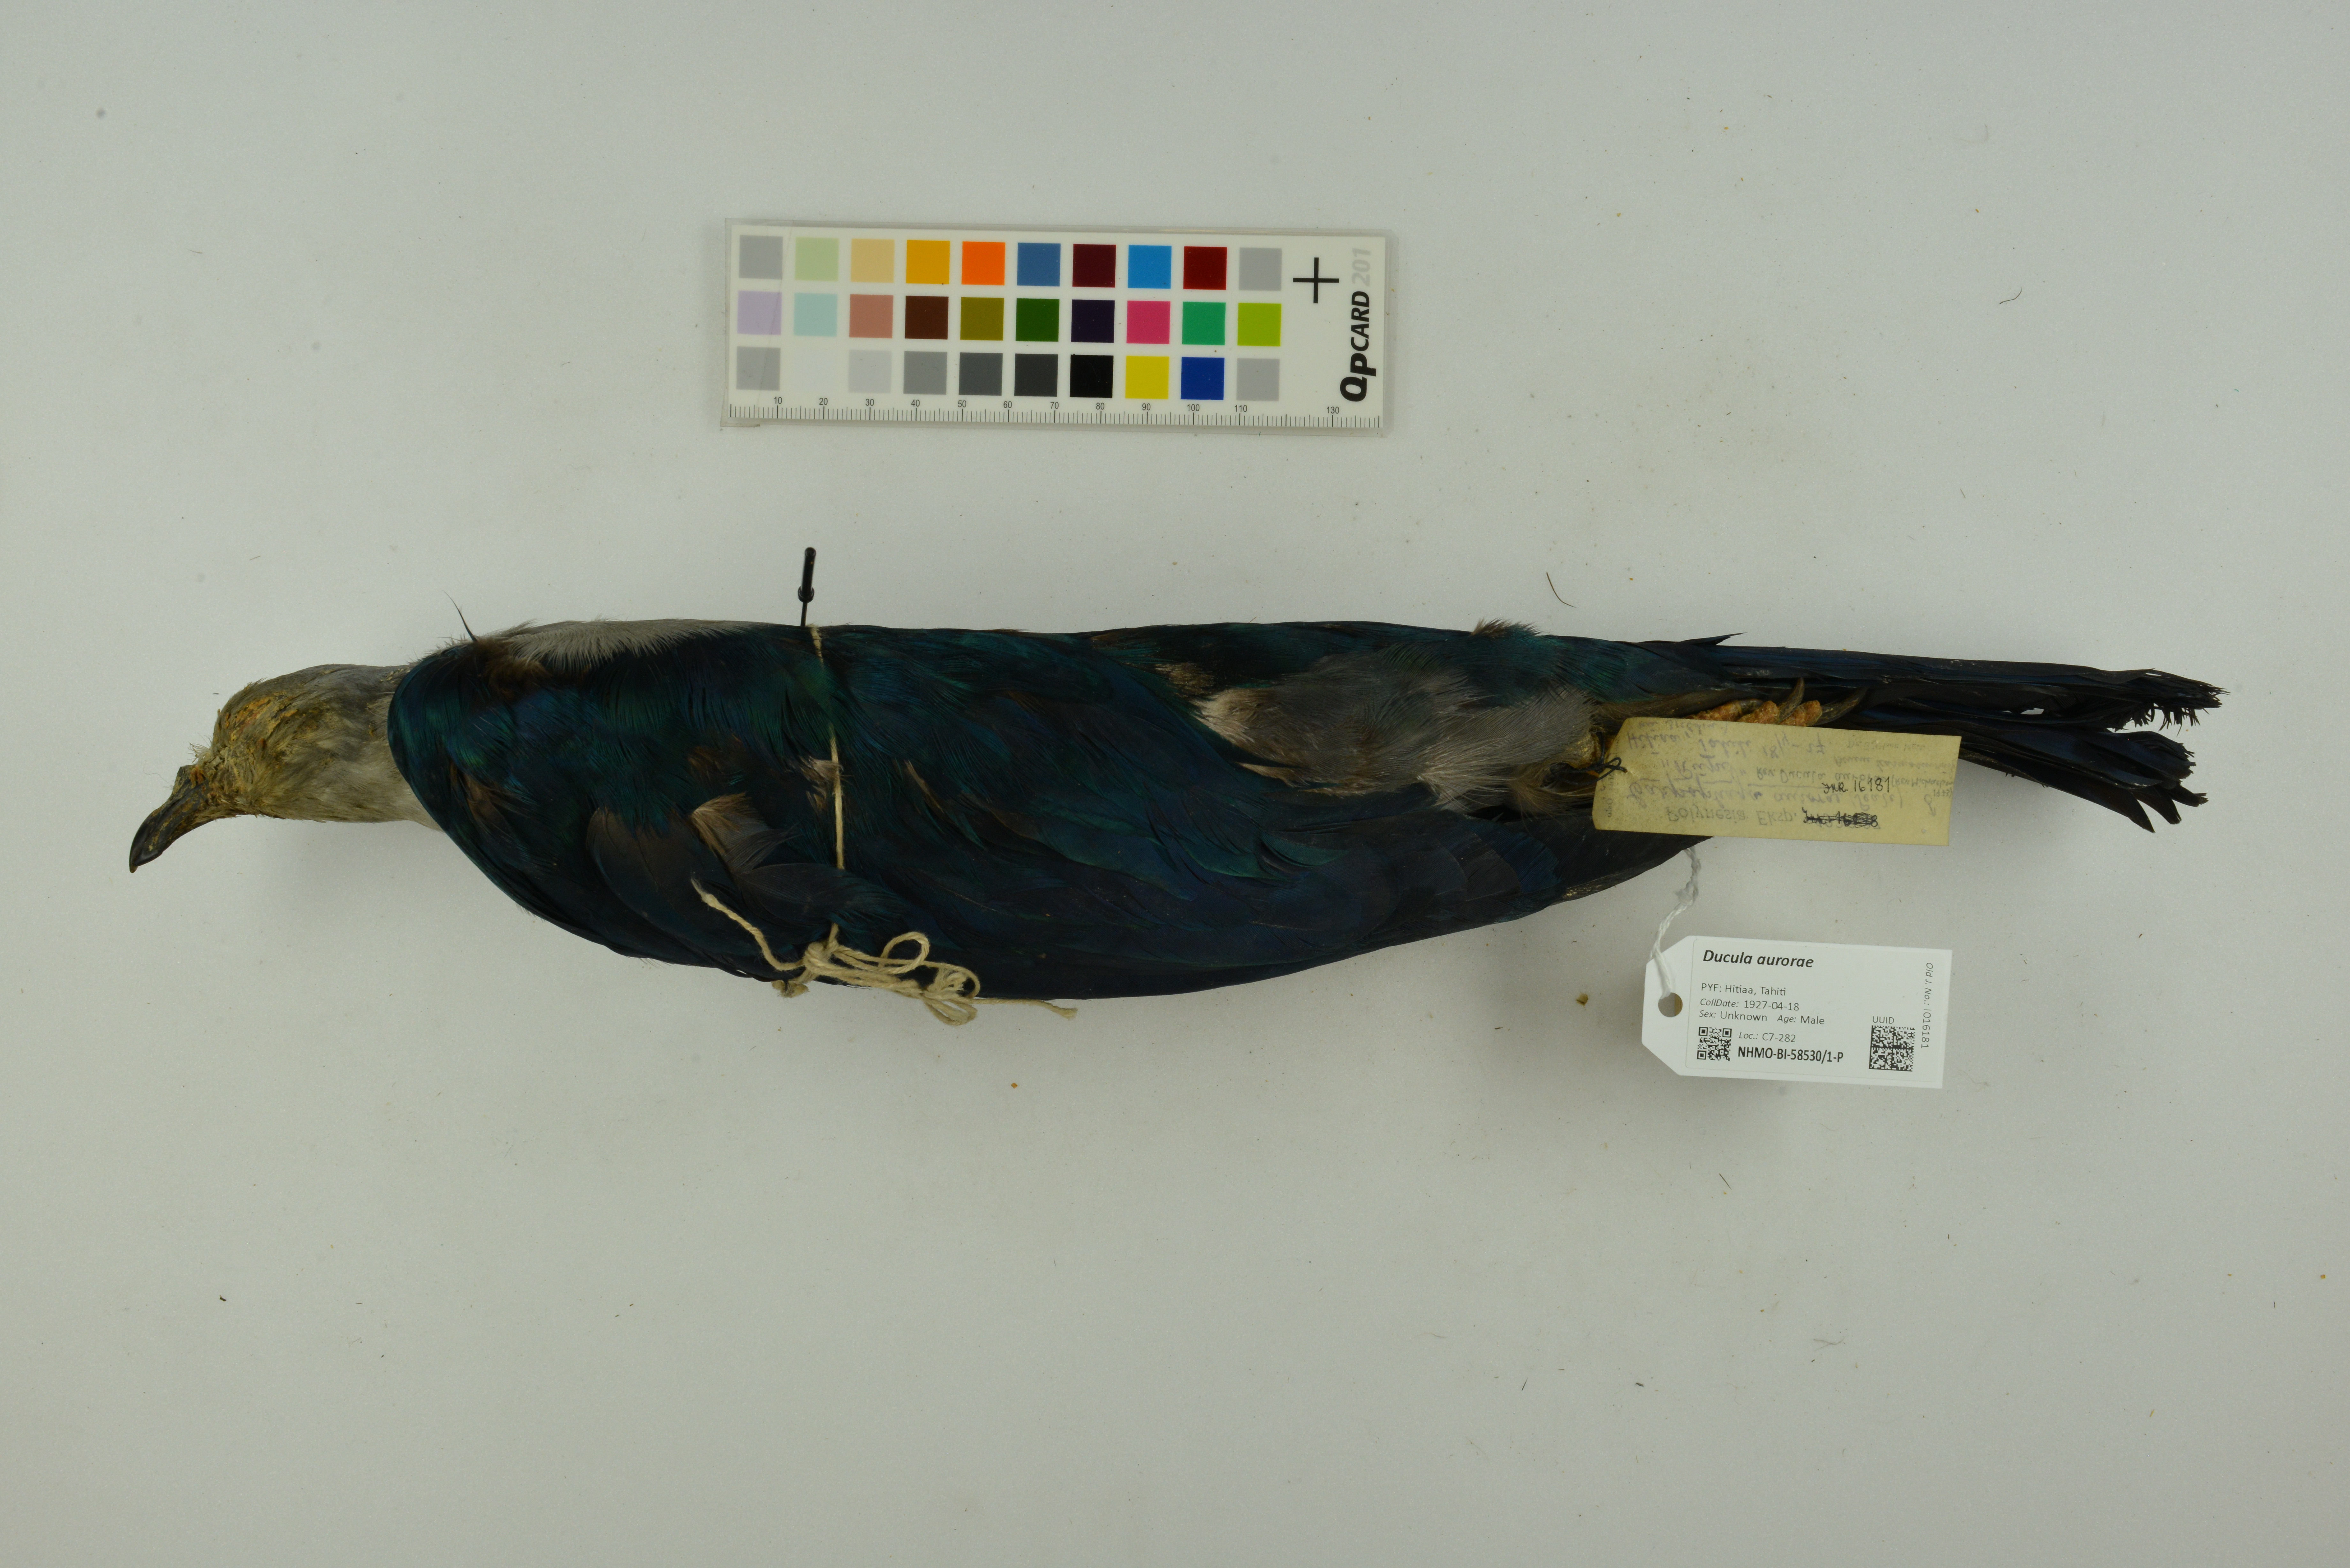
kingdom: Animalia
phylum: Chordata
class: Aves
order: Columbiformes
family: Columbidae
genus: Ducula
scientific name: Ducula aurorae
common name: Polynesian imperial-pigeon
